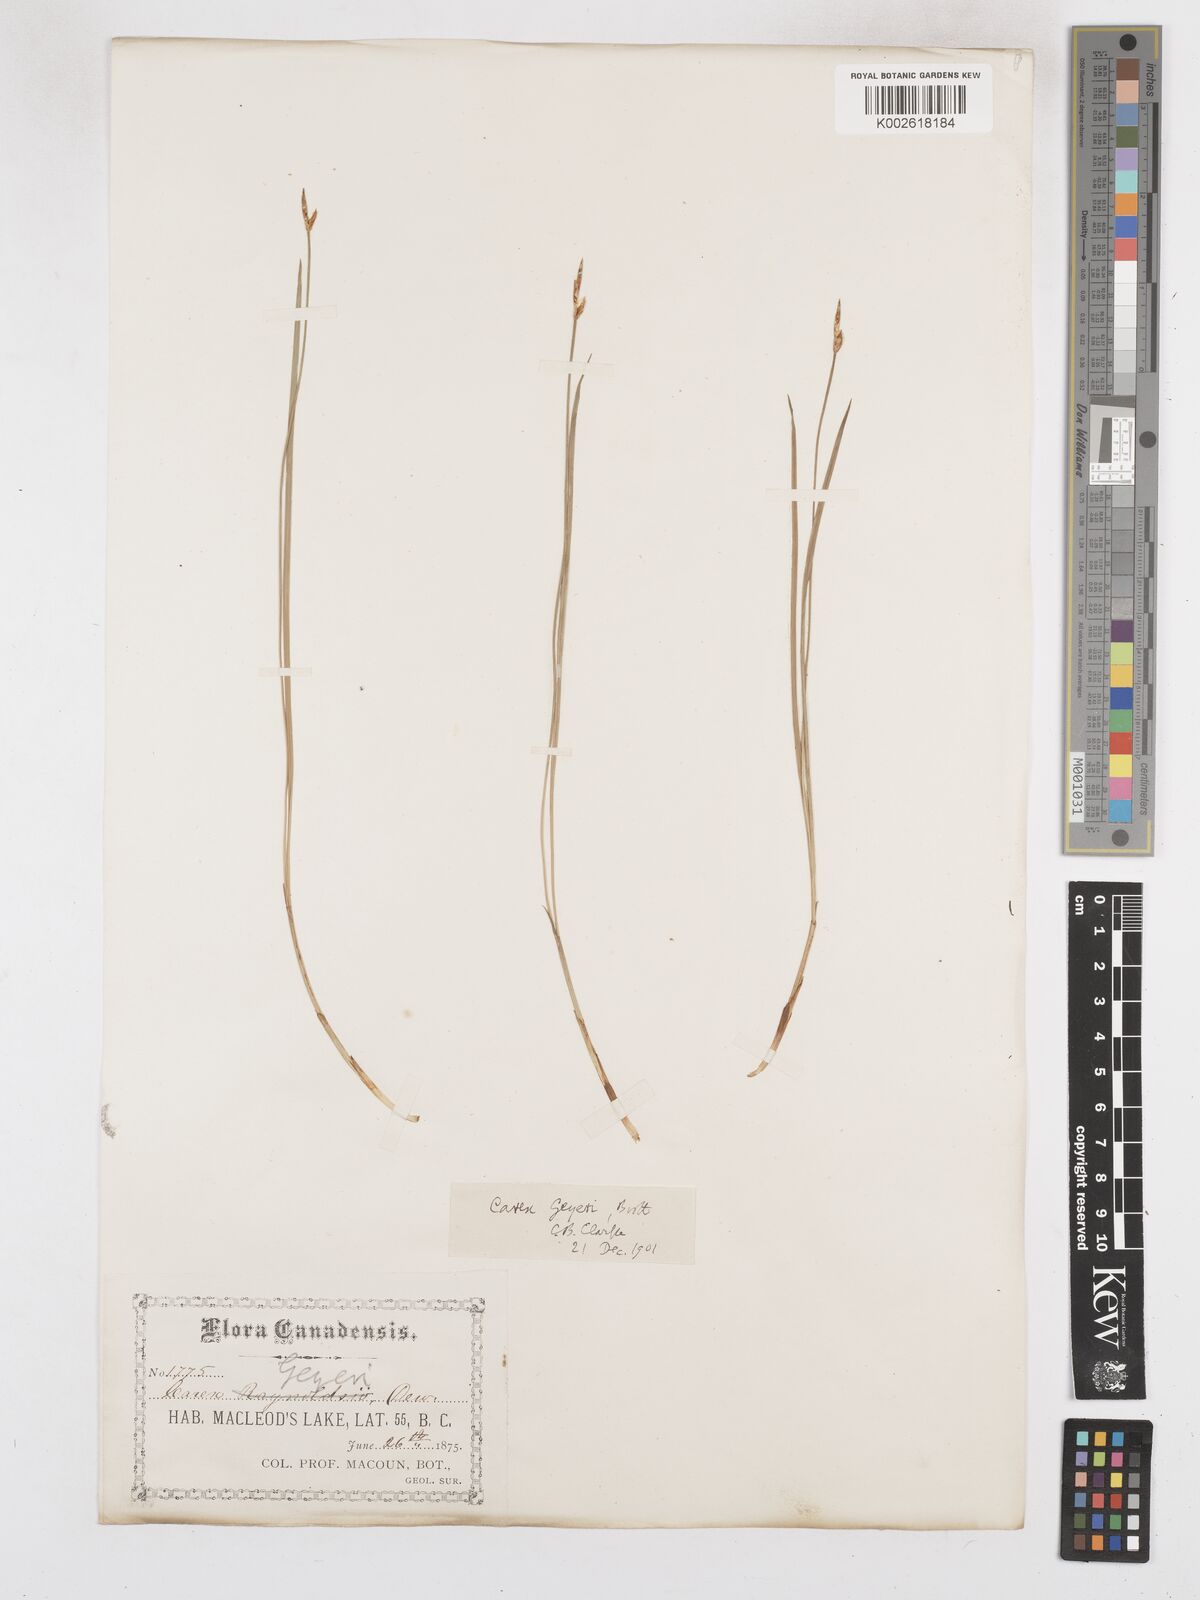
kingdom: Plantae
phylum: Tracheophyta
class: Liliopsida
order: Poales
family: Cyperaceae
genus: Carex
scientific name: Carex geyeri
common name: Elk sedge
